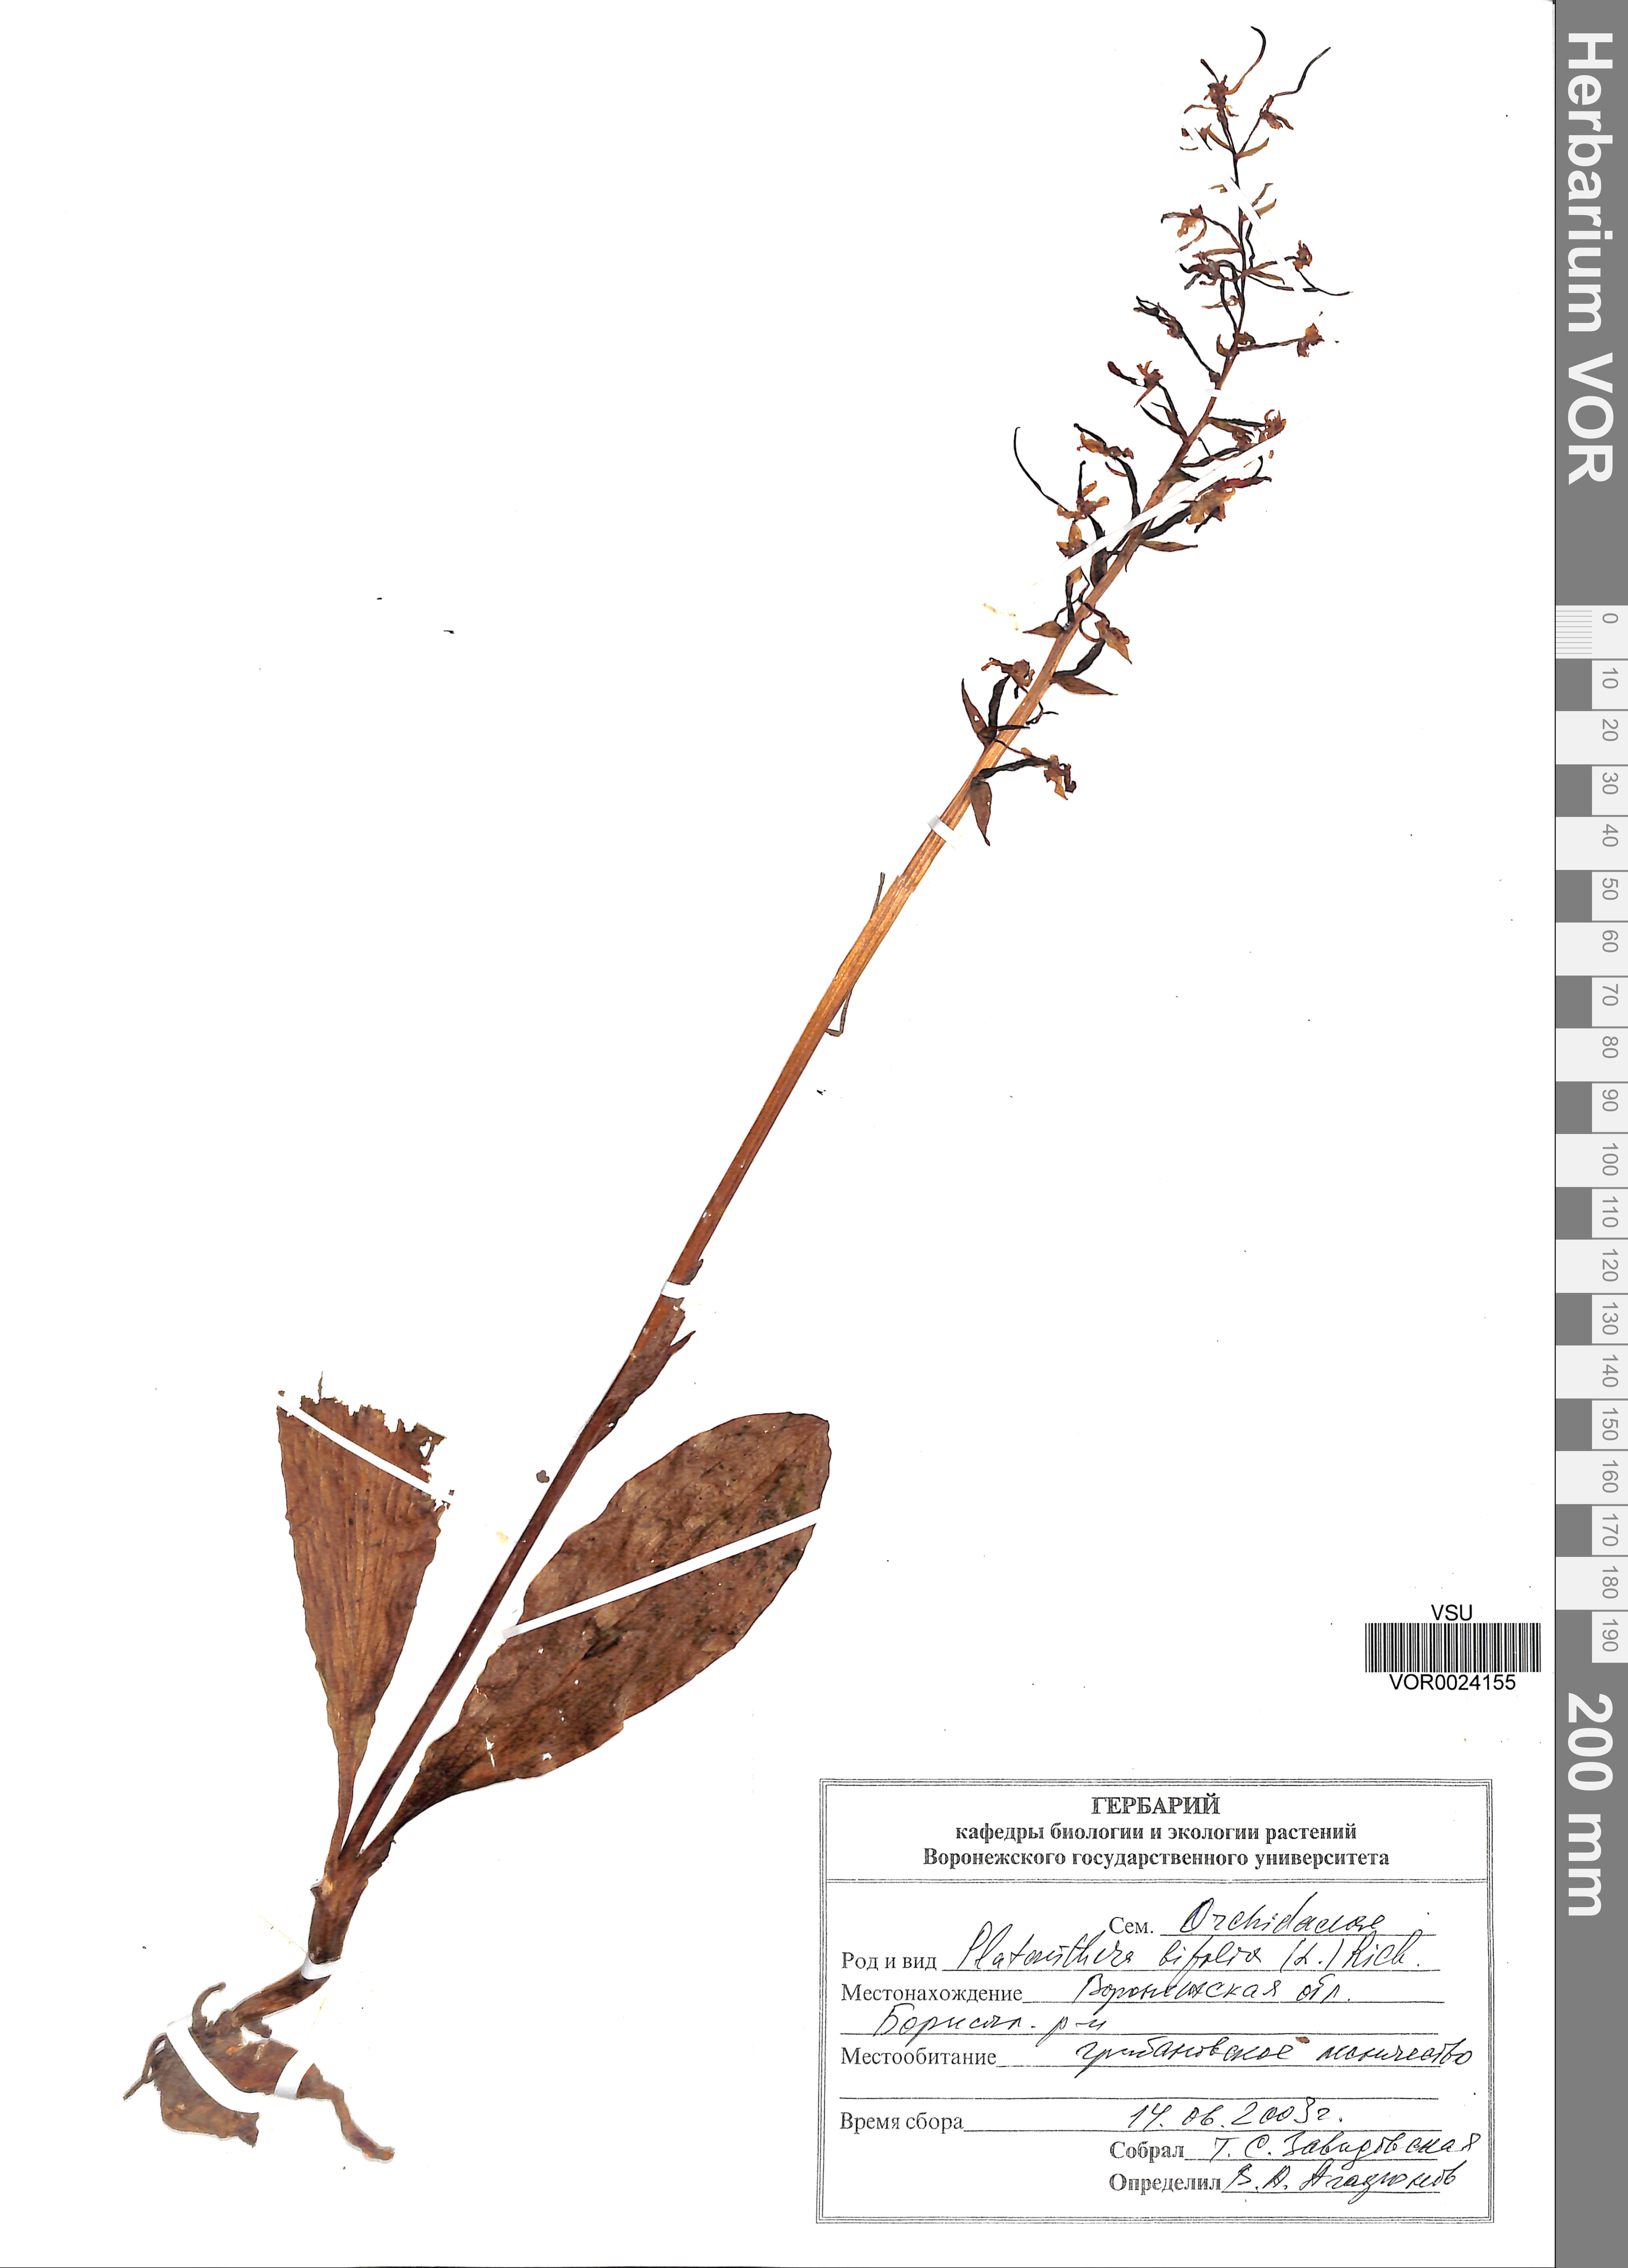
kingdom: Plantae
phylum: Tracheophyta
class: Liliopsida
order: Asparagales
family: Orchidaceae
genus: Platanthera
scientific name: Platanthera bifolia
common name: Lesser butterfly-orchid
